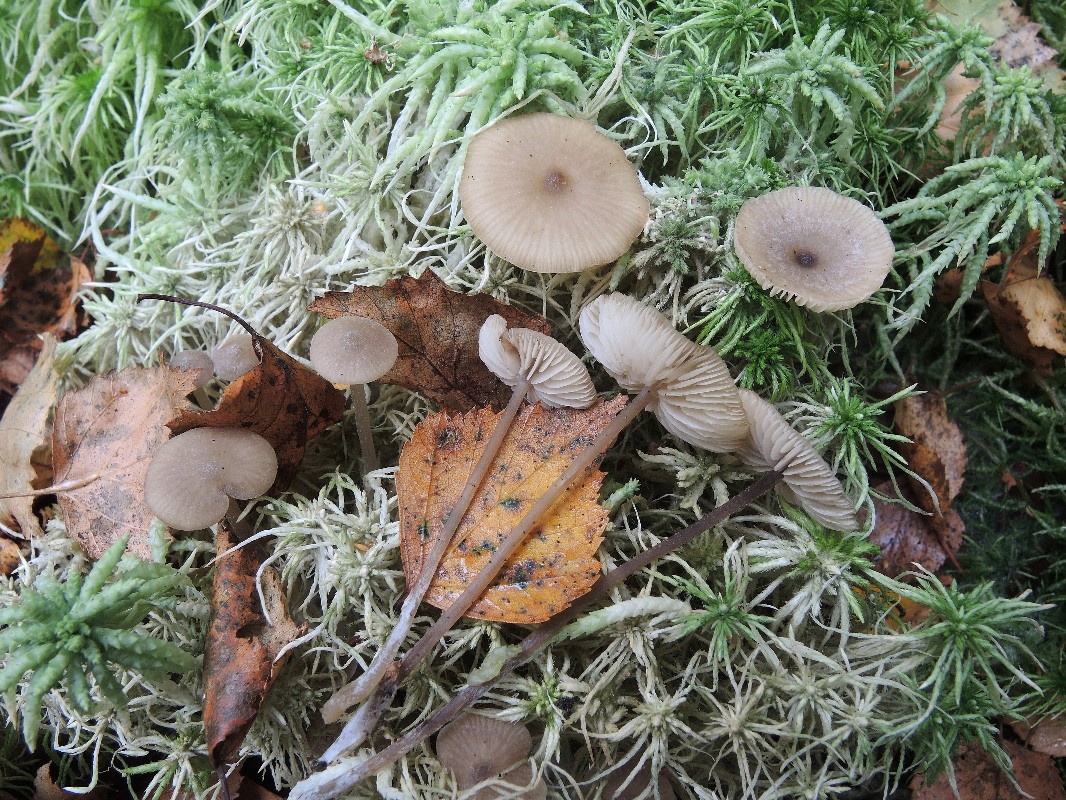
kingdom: Fungi
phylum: Basidiomycota
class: Agaricomycetes
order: Agaricales
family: Lyophyllaceae
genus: Sphagnurus
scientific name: Sphagnurus paluster
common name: tørvemos-gråblad
